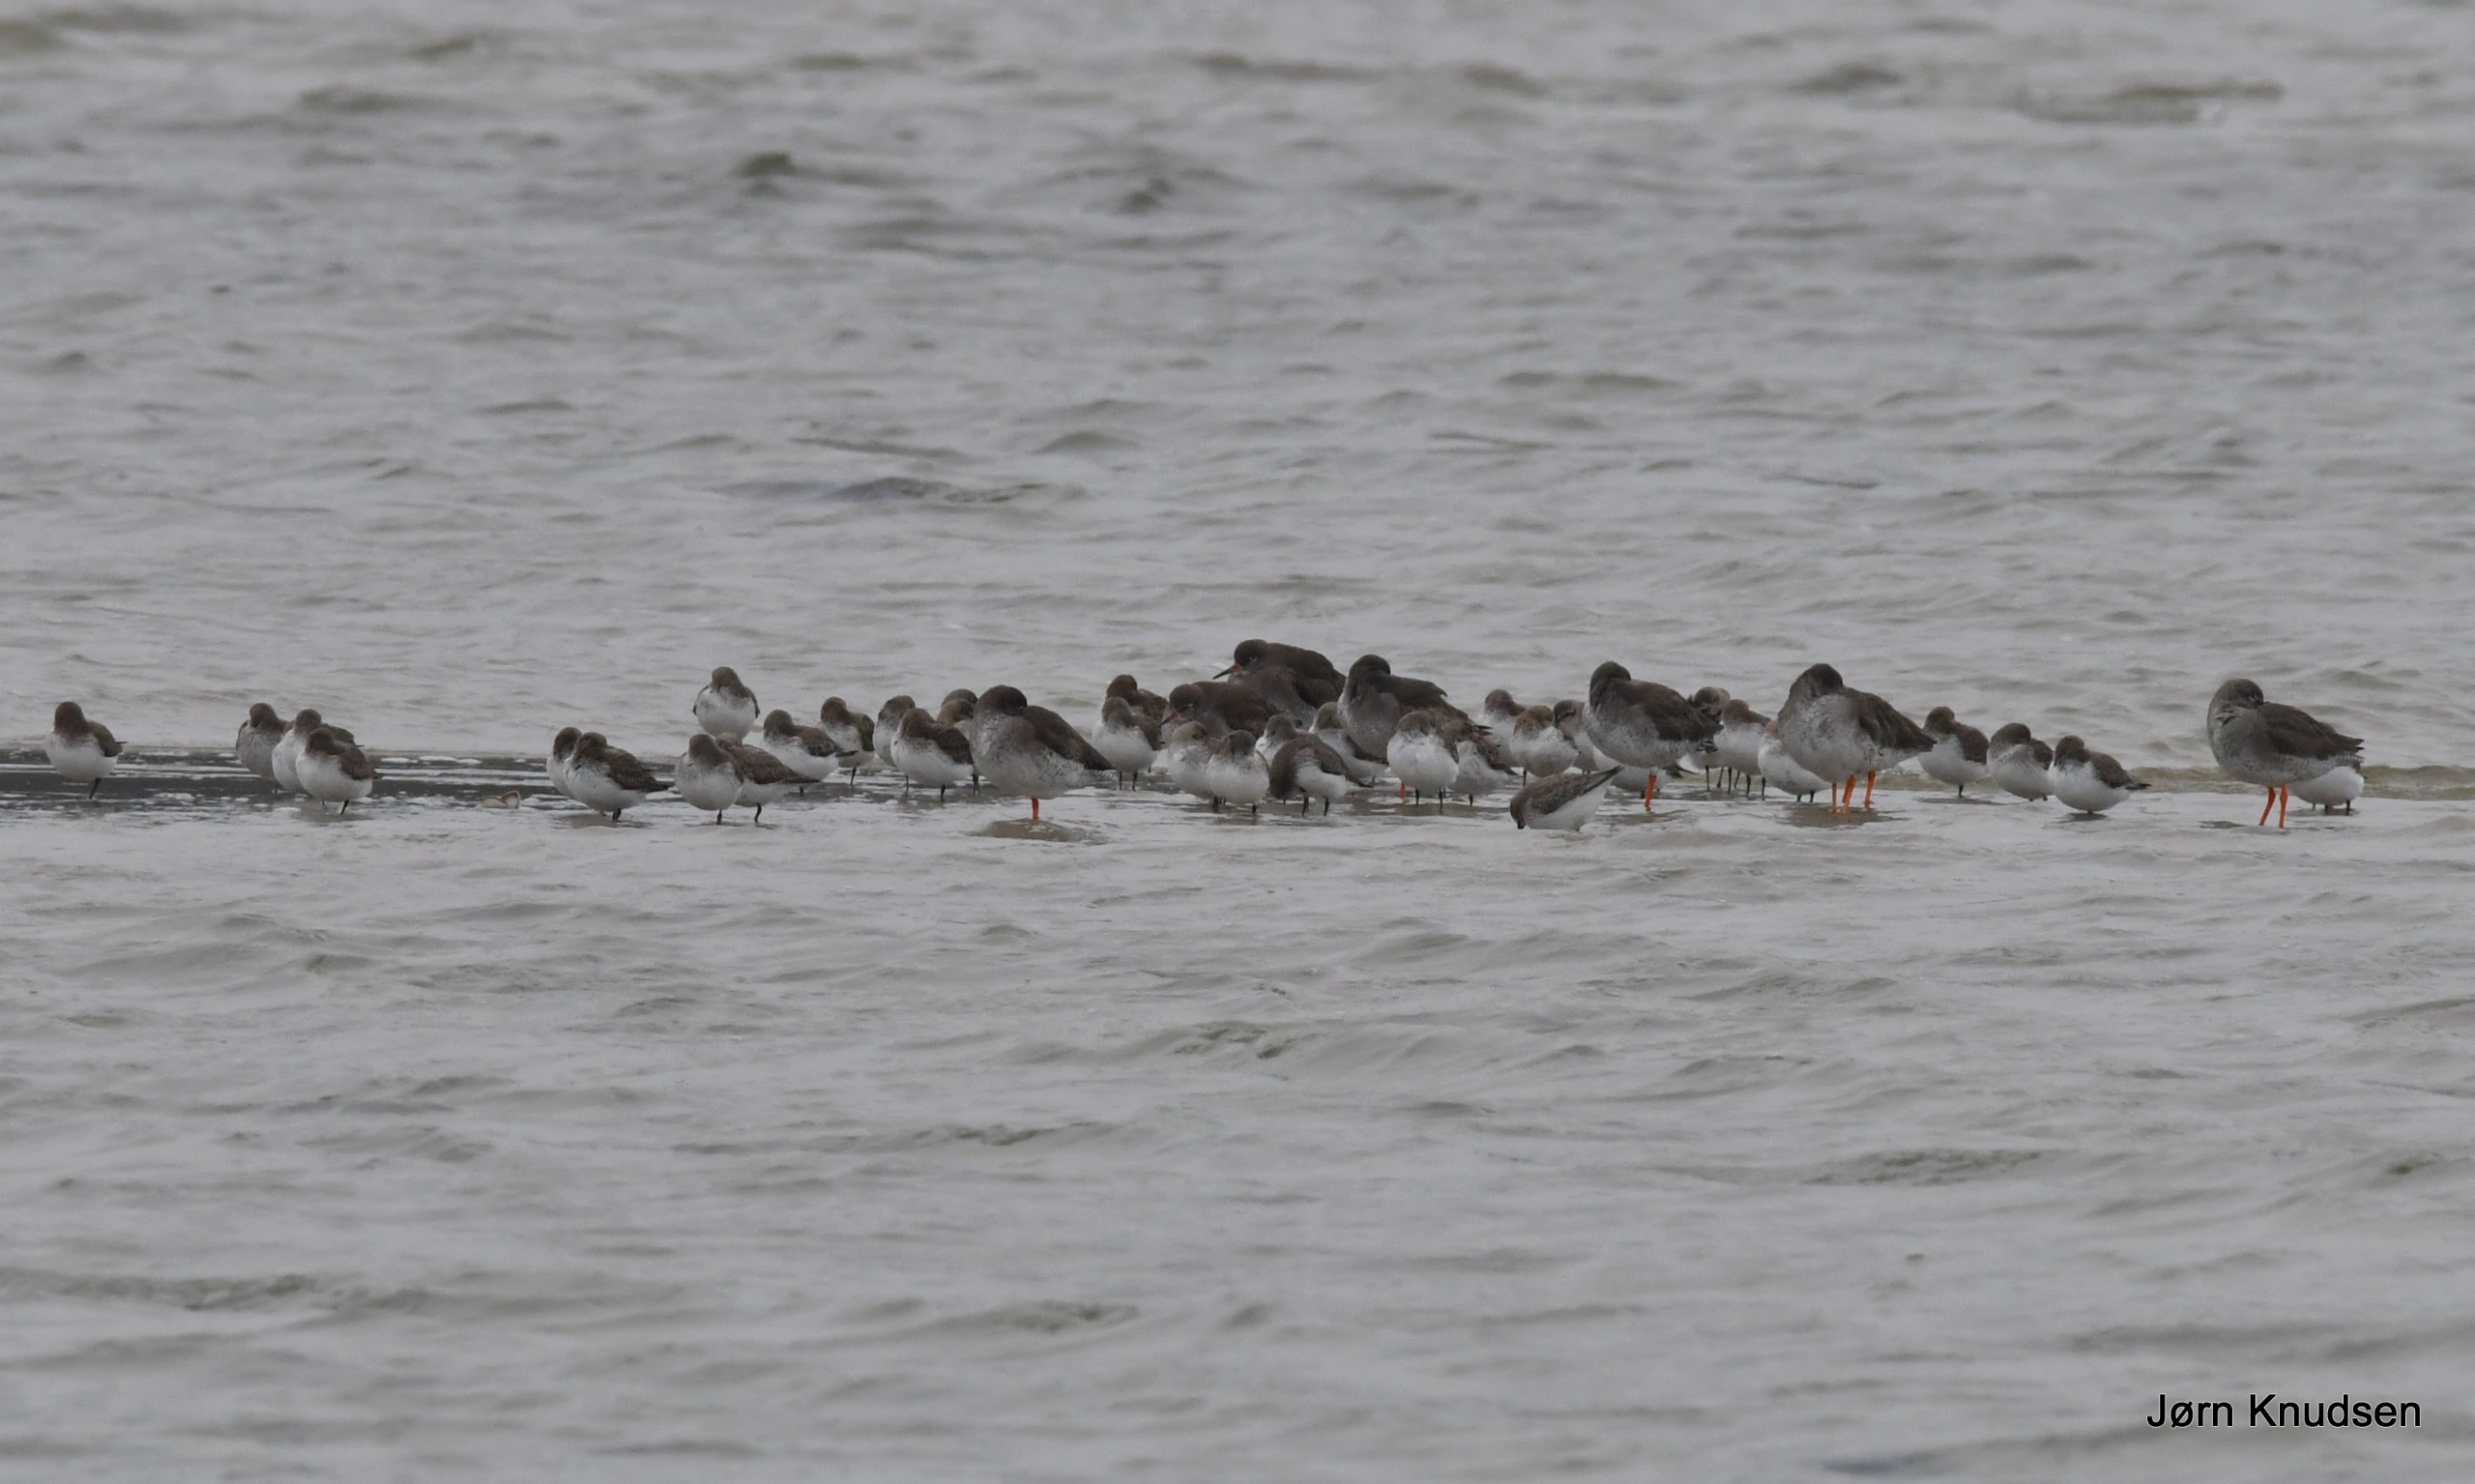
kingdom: Animalia
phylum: Chordata
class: Aves
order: Charadriiformes
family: Scolopacidae
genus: Calidris
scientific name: Calidris alpina
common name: Almindelig ryle
